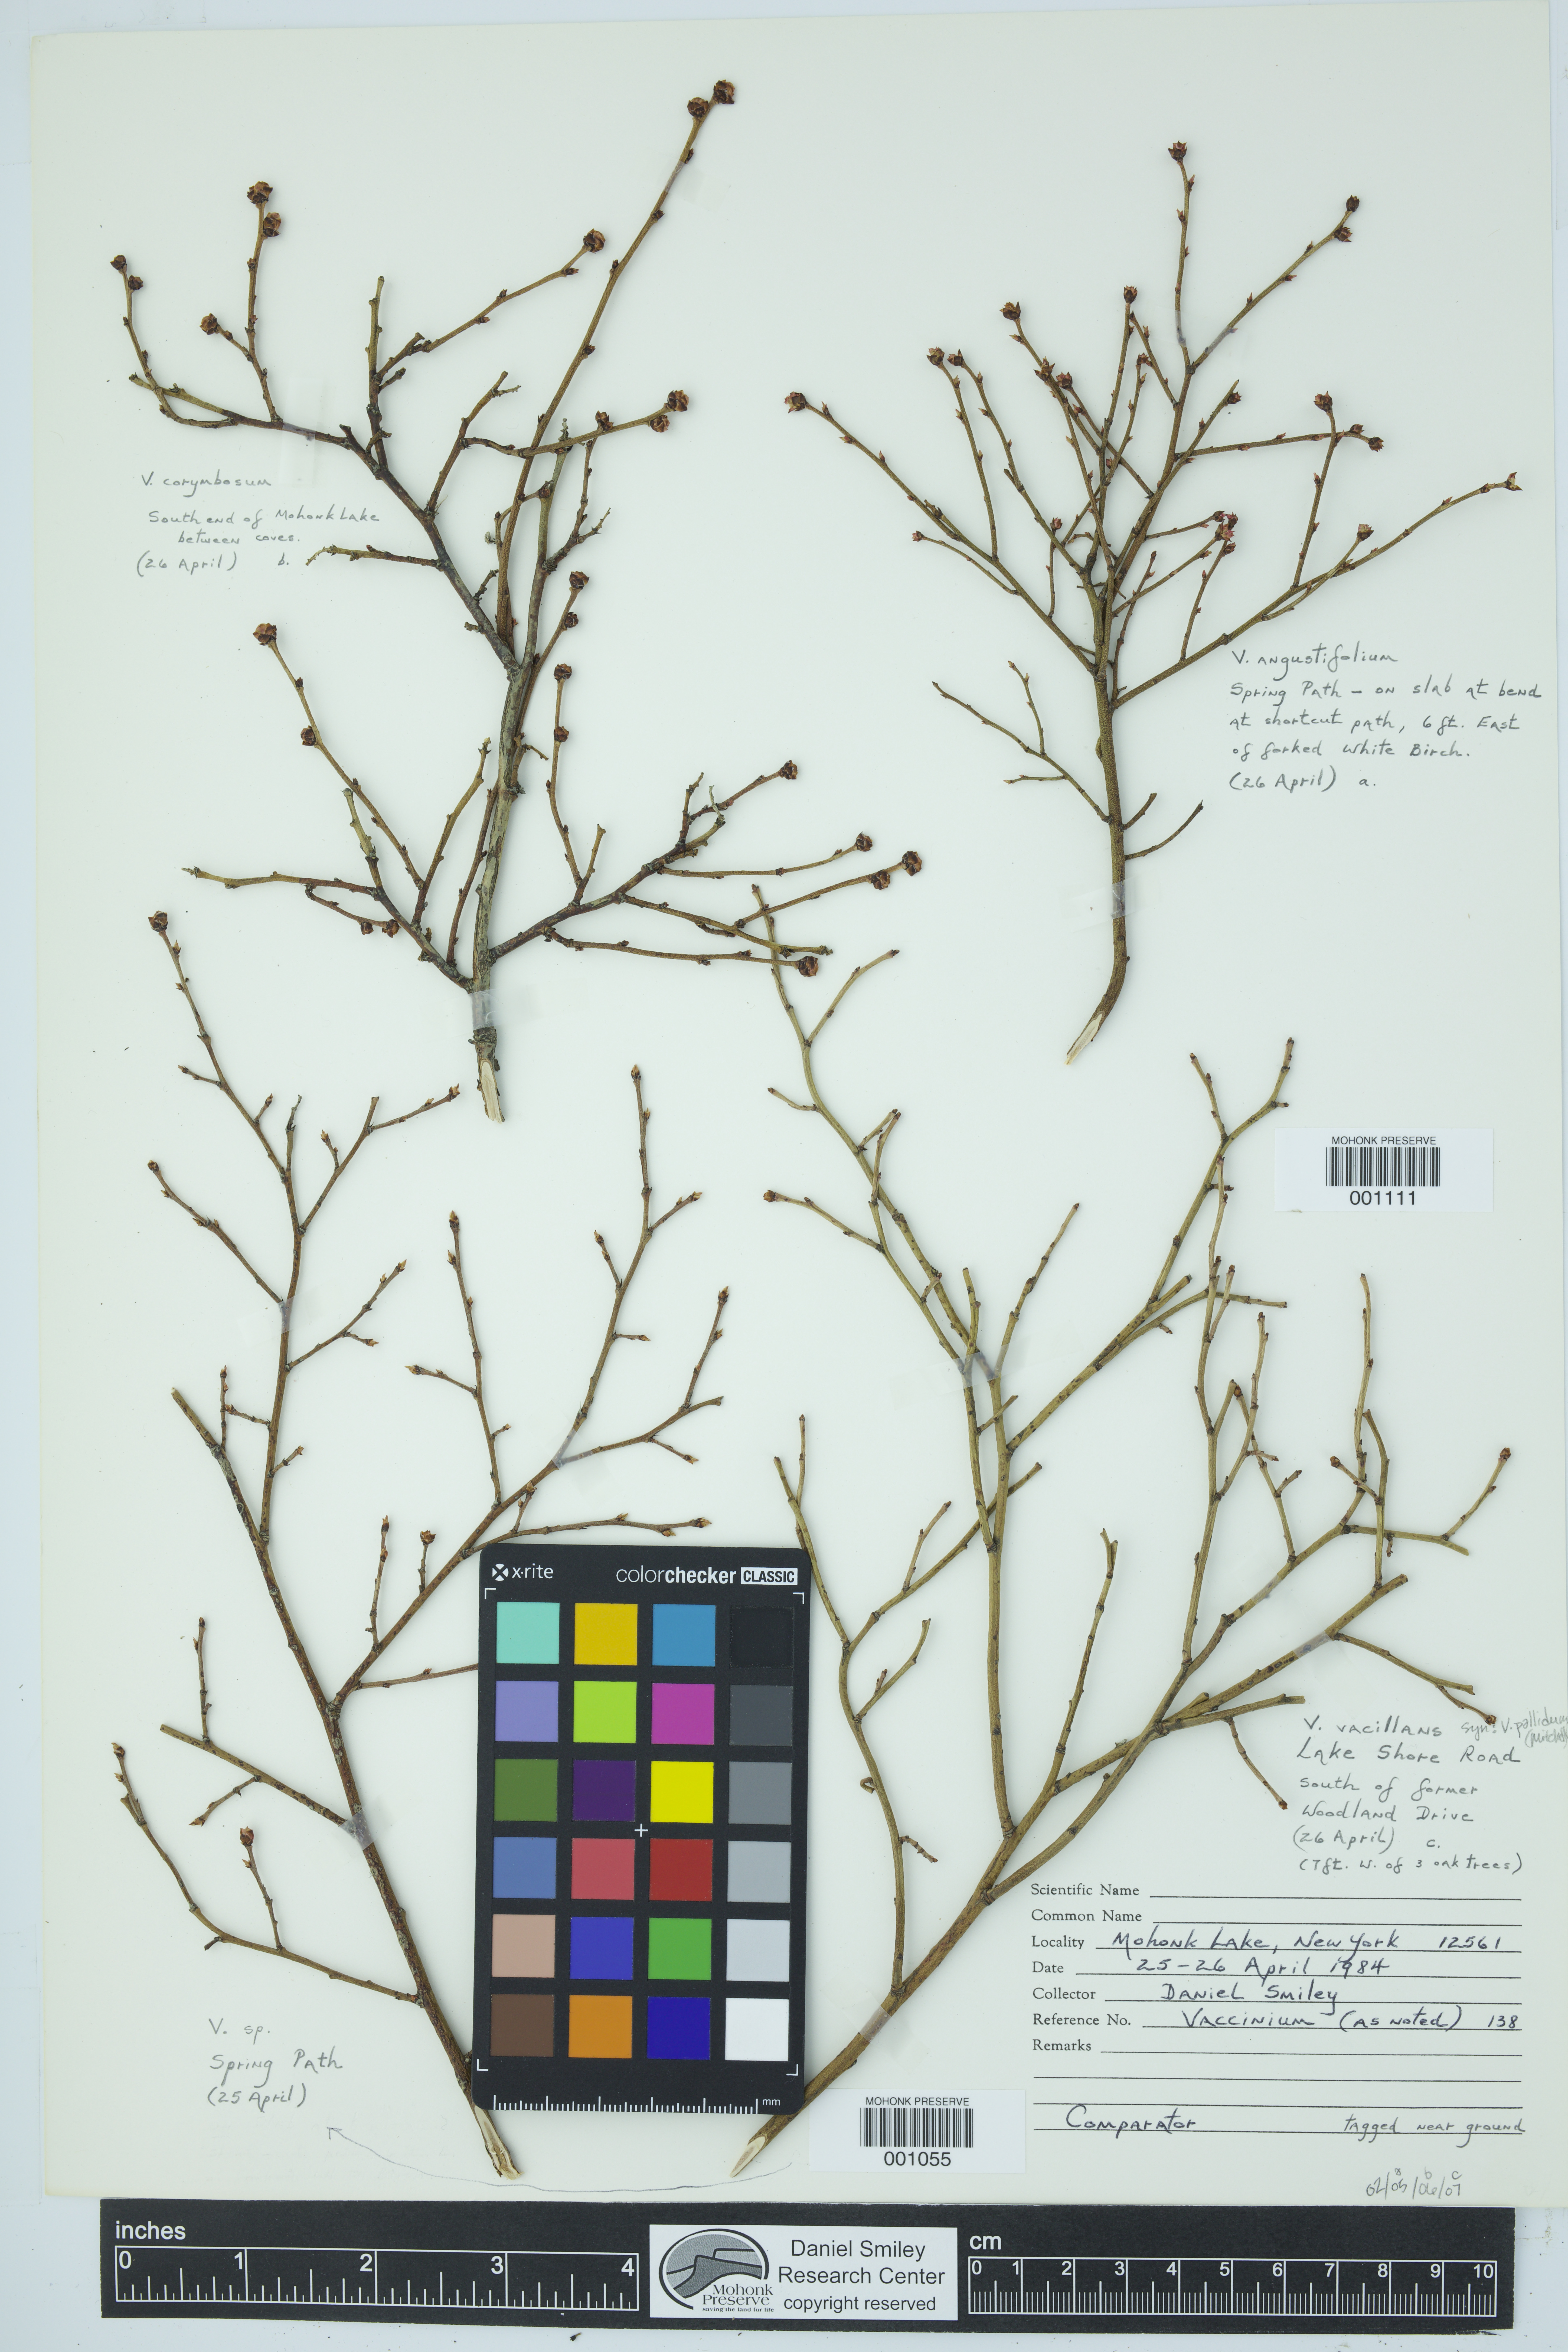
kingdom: Plantae
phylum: Tracheophyta
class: Magnoliopsida
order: Ericales
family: Ericaceae
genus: Vaccinium
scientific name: Vaccinium
